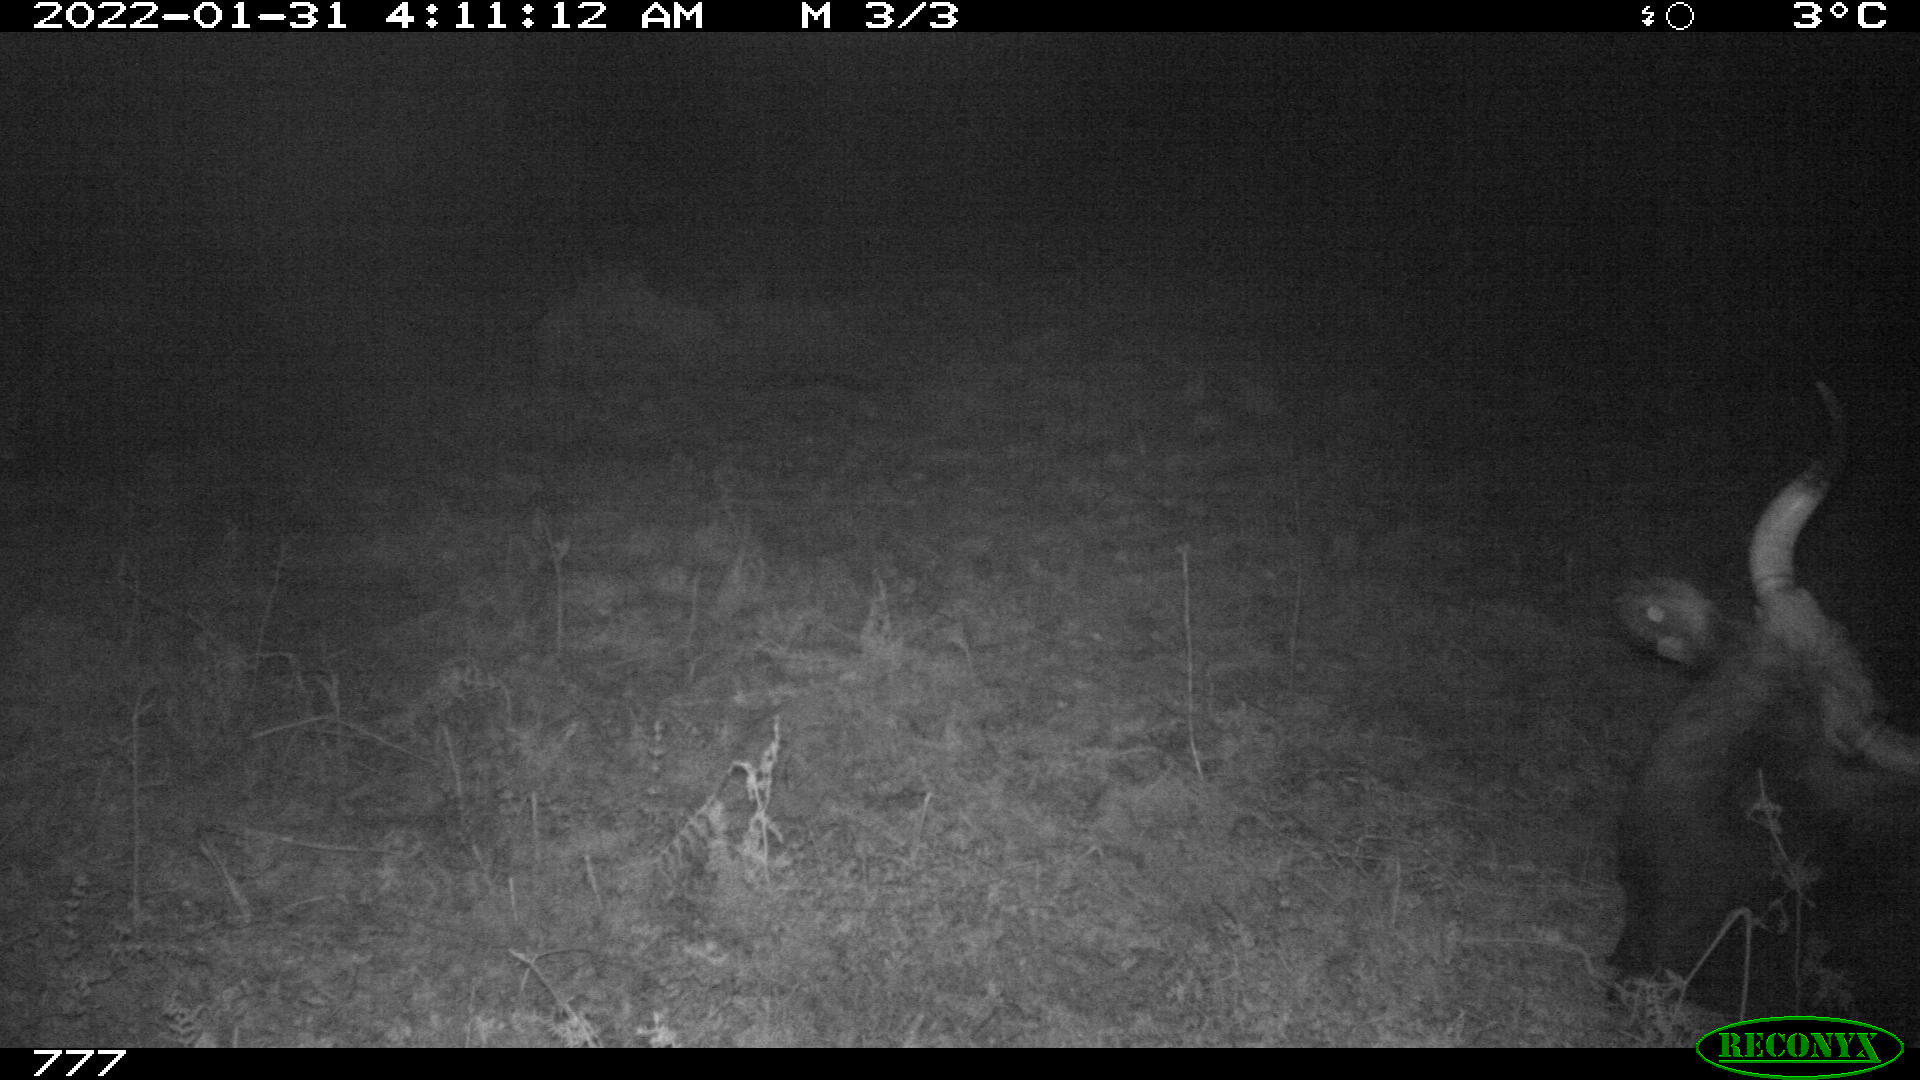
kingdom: Animalia
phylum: Chordata
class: Mammalia
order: Artiodactyla
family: Bovidae
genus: Bos
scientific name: Bos taurus
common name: Domesticated cattle
